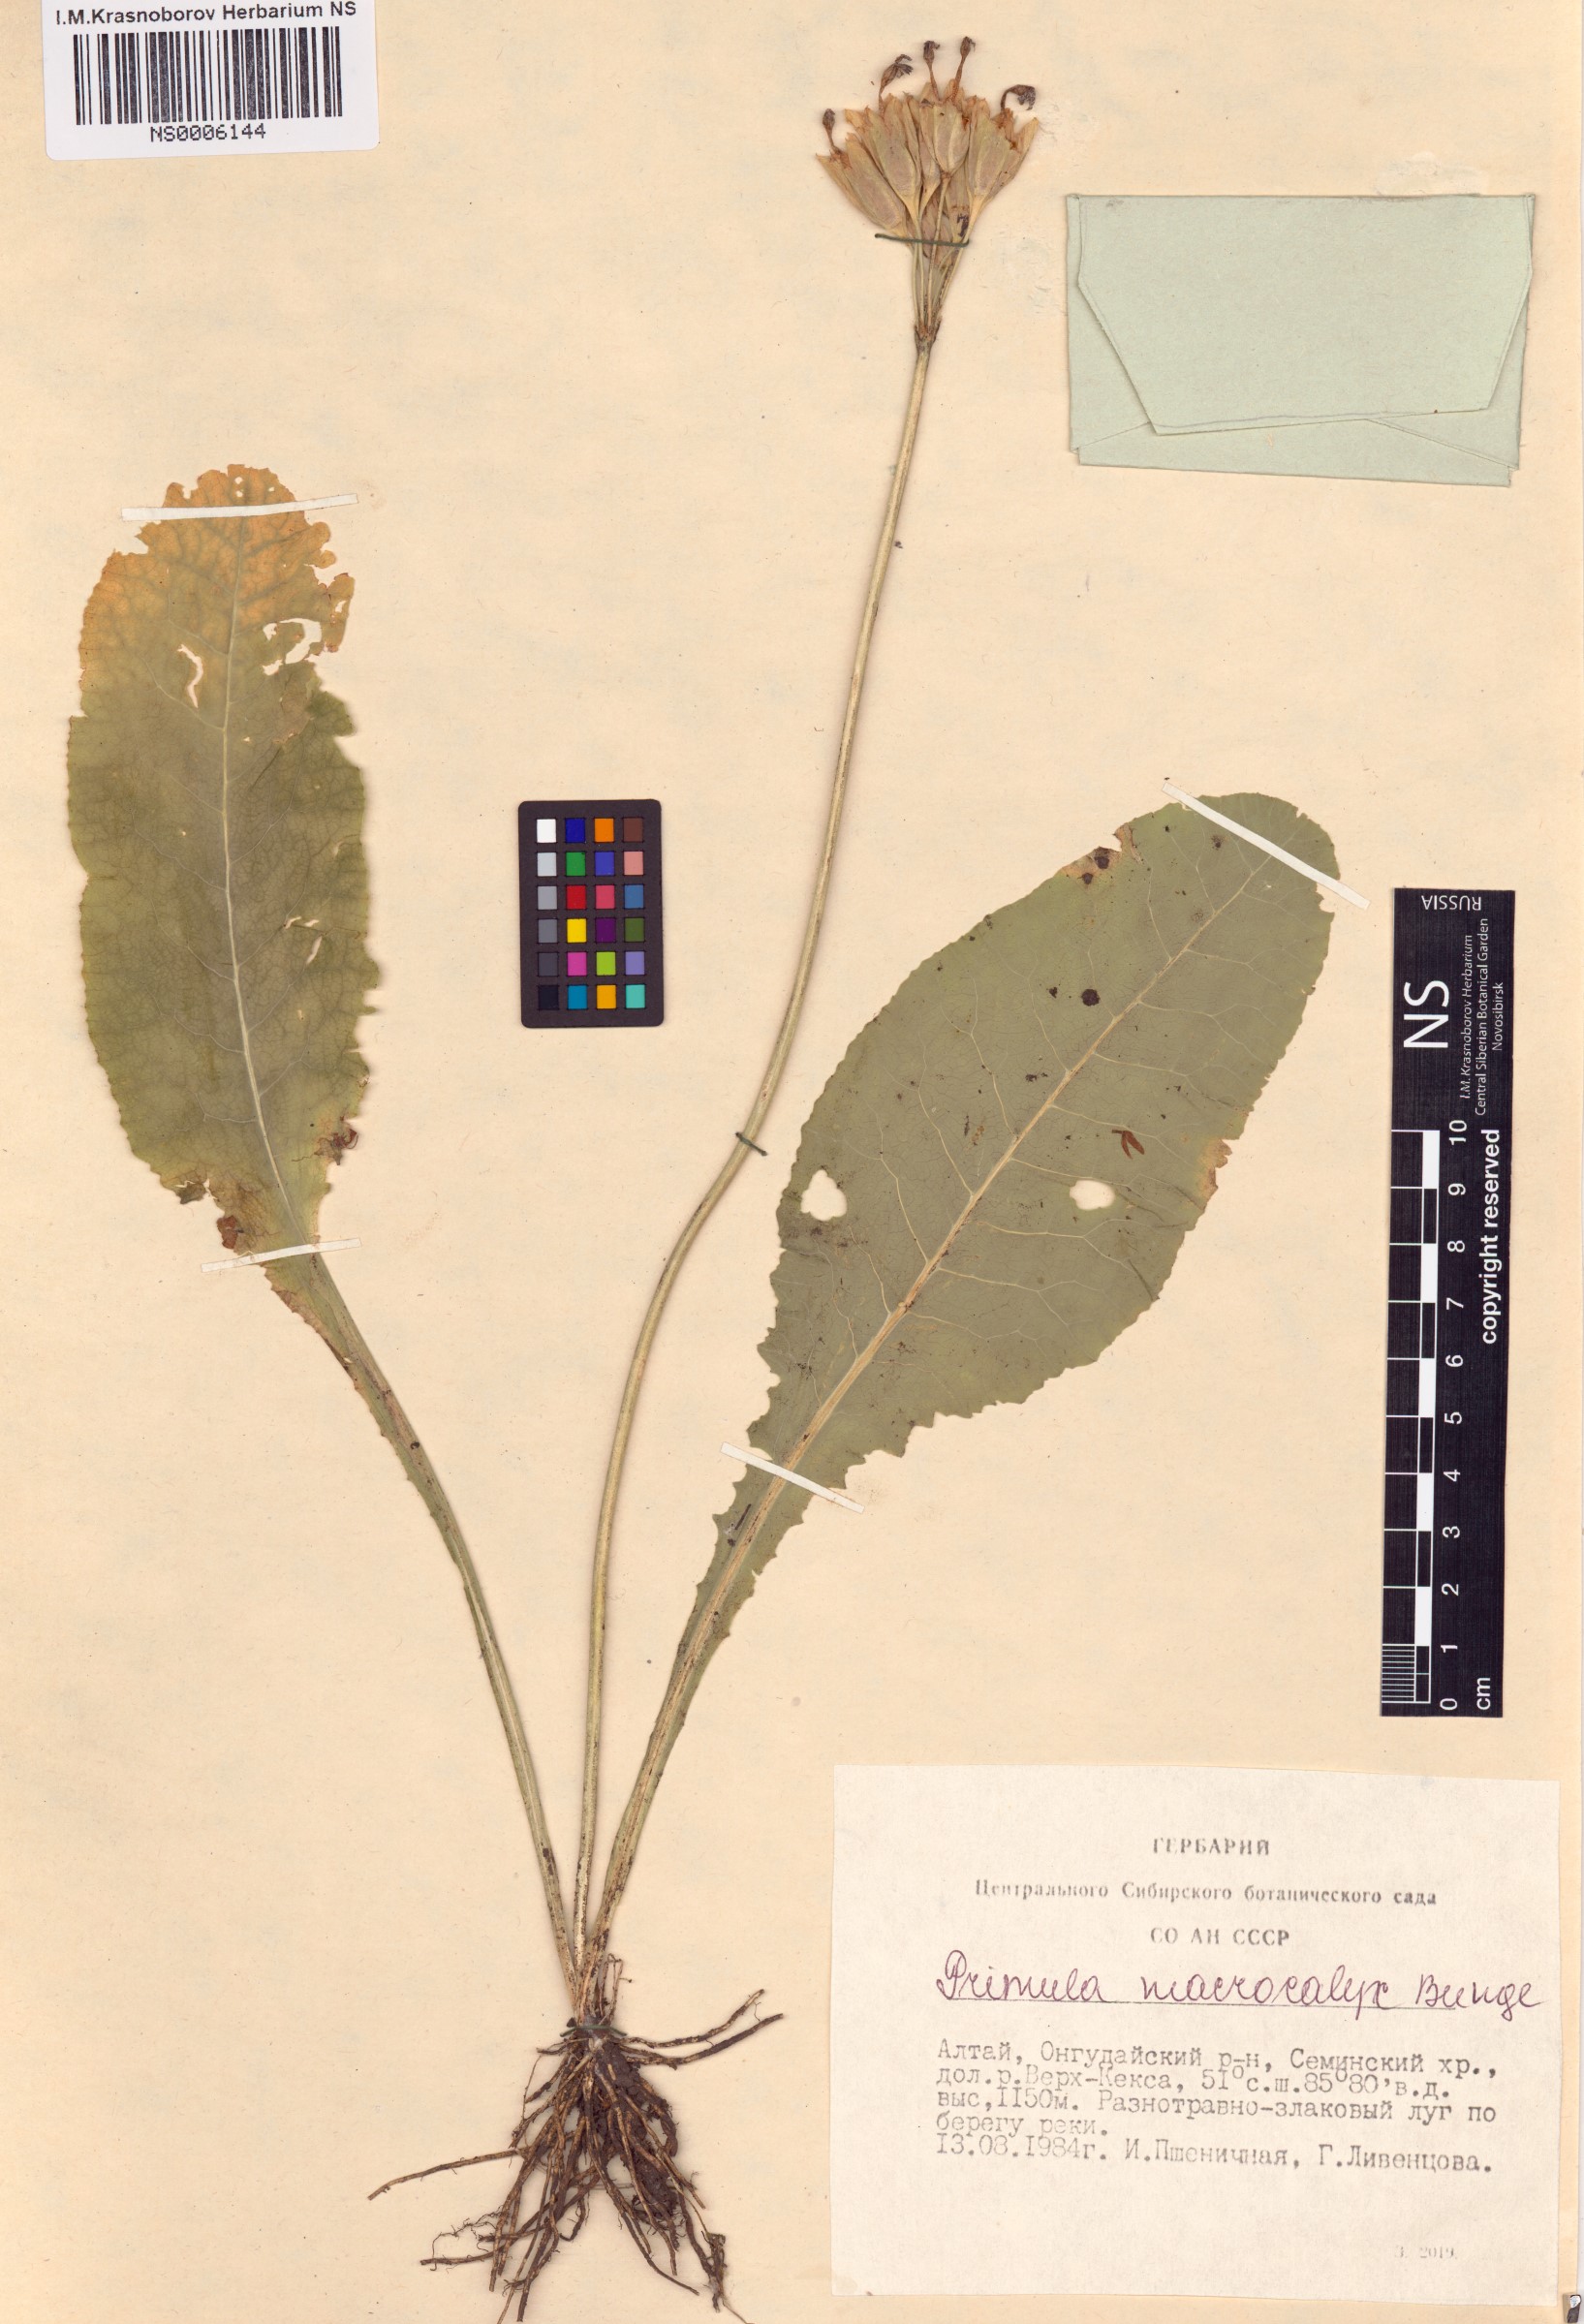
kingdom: Plantae
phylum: Tracheophyta
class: Magnoliopsida
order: Ericales
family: Primulaceae
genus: Primula
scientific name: Primula veris
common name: Cowslip
